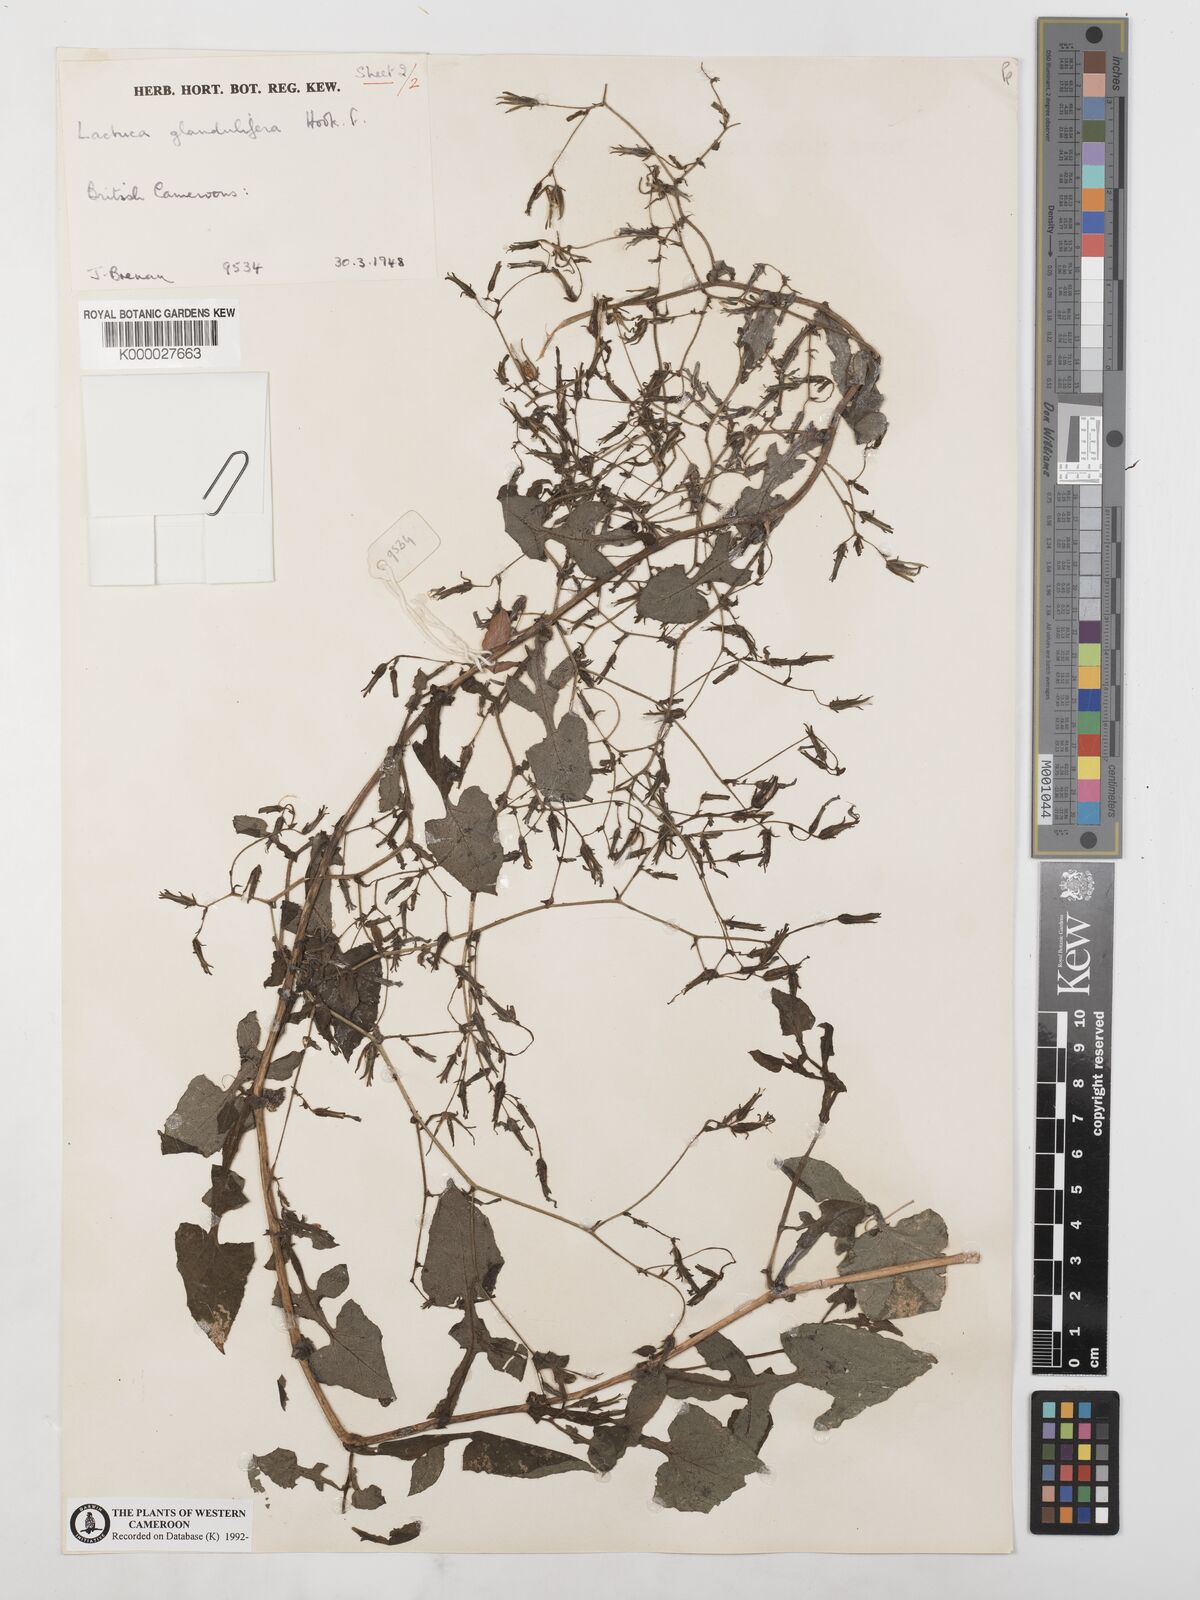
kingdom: Plantae
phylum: Tracheophyta
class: Magnoliopsida
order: Asterales
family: Asteraceae
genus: Lactuca
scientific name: Lactuca glandulifera
